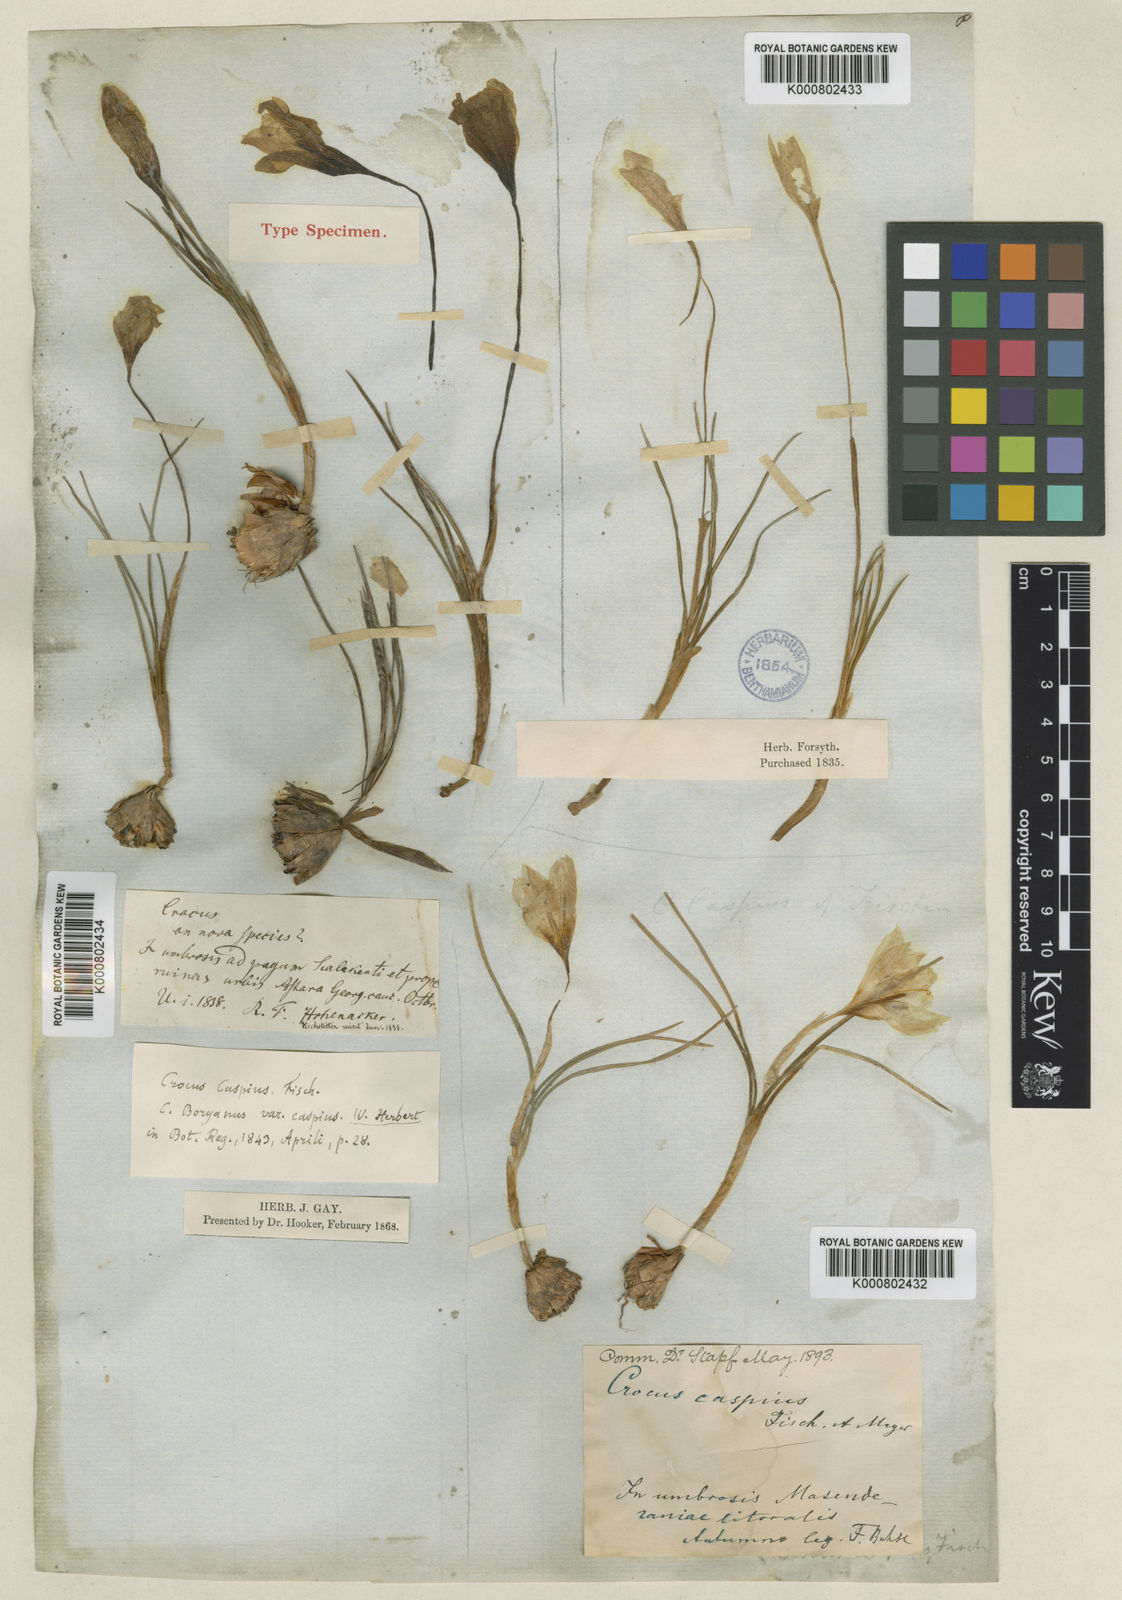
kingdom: Plantae
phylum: Tracheophyta
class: Liliopsida
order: Asparagales
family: Iridaceae
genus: Crocus
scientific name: Crocus
